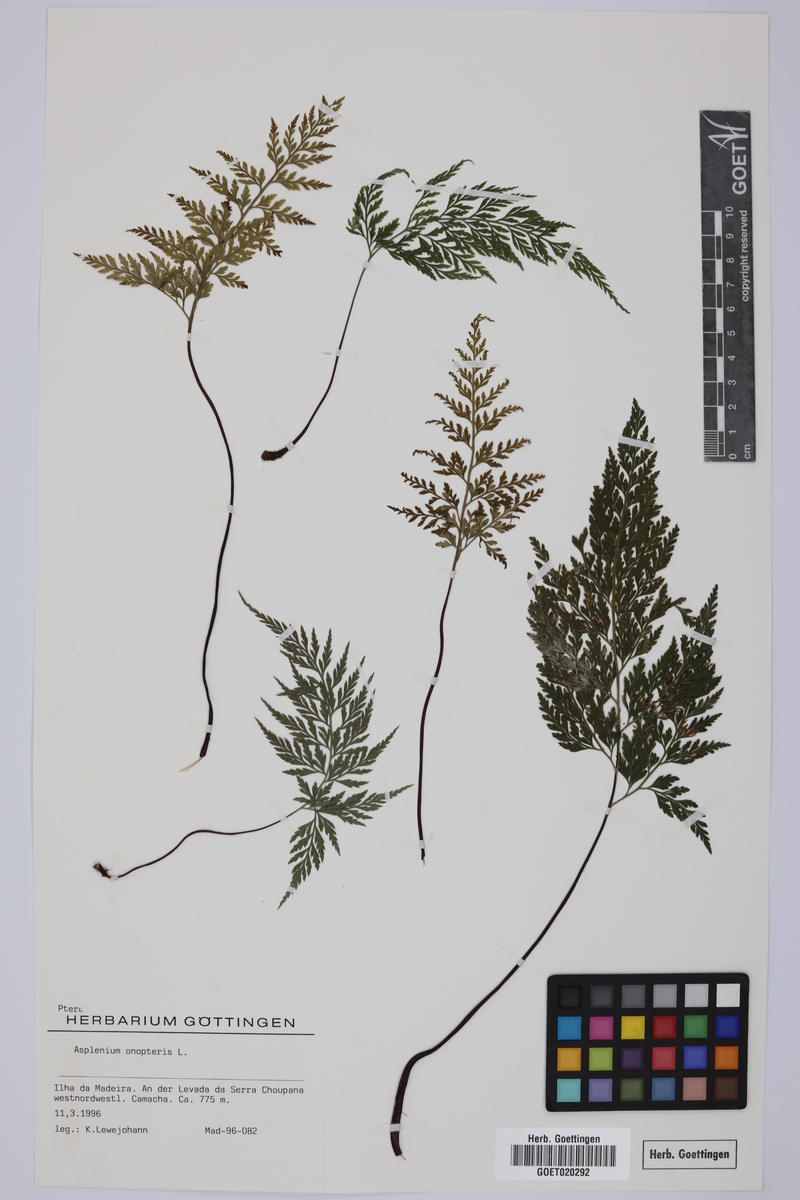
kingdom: Plantae
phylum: Tracheophyta
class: Polypodiopsida
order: Polypodiales
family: Aspleniaceae
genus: Asplenium
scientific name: Asplenium onopteris
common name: Irish spleenwort
